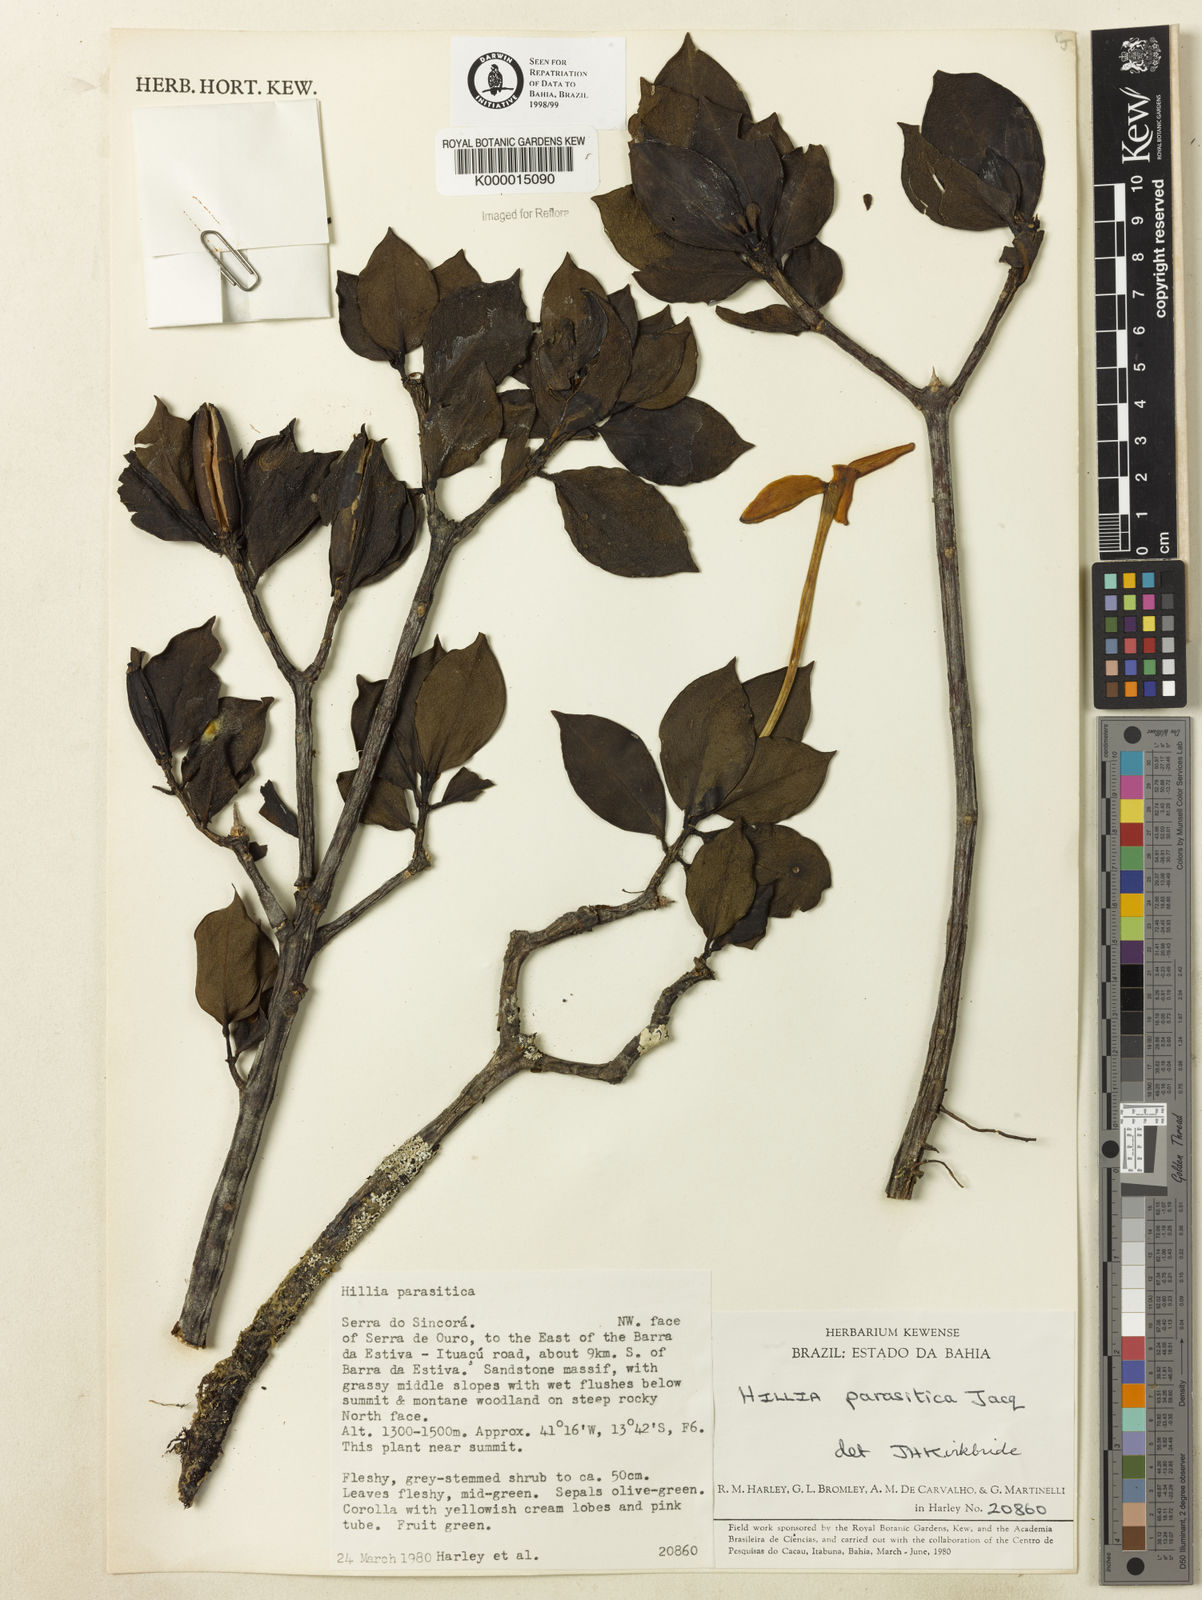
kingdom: Plantae
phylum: Tracheophyta
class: Magnoliopsida
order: Gentianales
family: Rubiaceae
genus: Hillia
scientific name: Hillia parasitica
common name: Morning star
